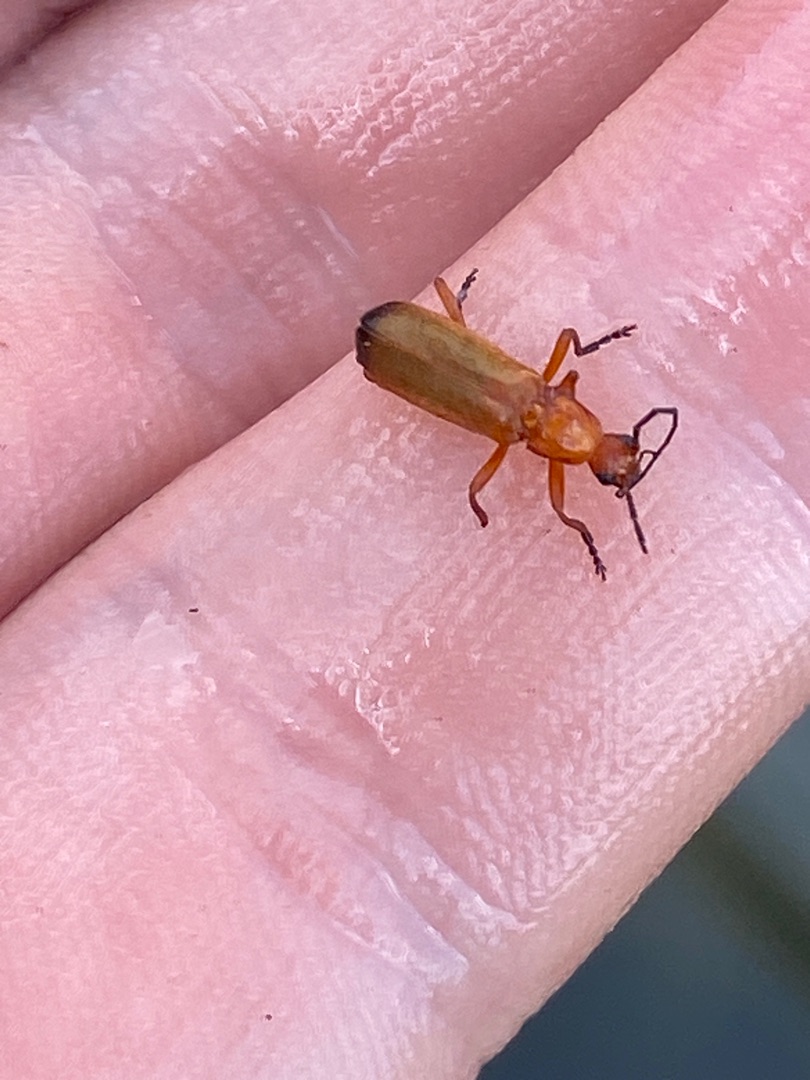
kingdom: Animalia
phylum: Arthropoda
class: Insecta
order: Coleoptera
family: Cantharidae
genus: Rhagonycha
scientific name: Rhagonycha fulva
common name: Præstebille
